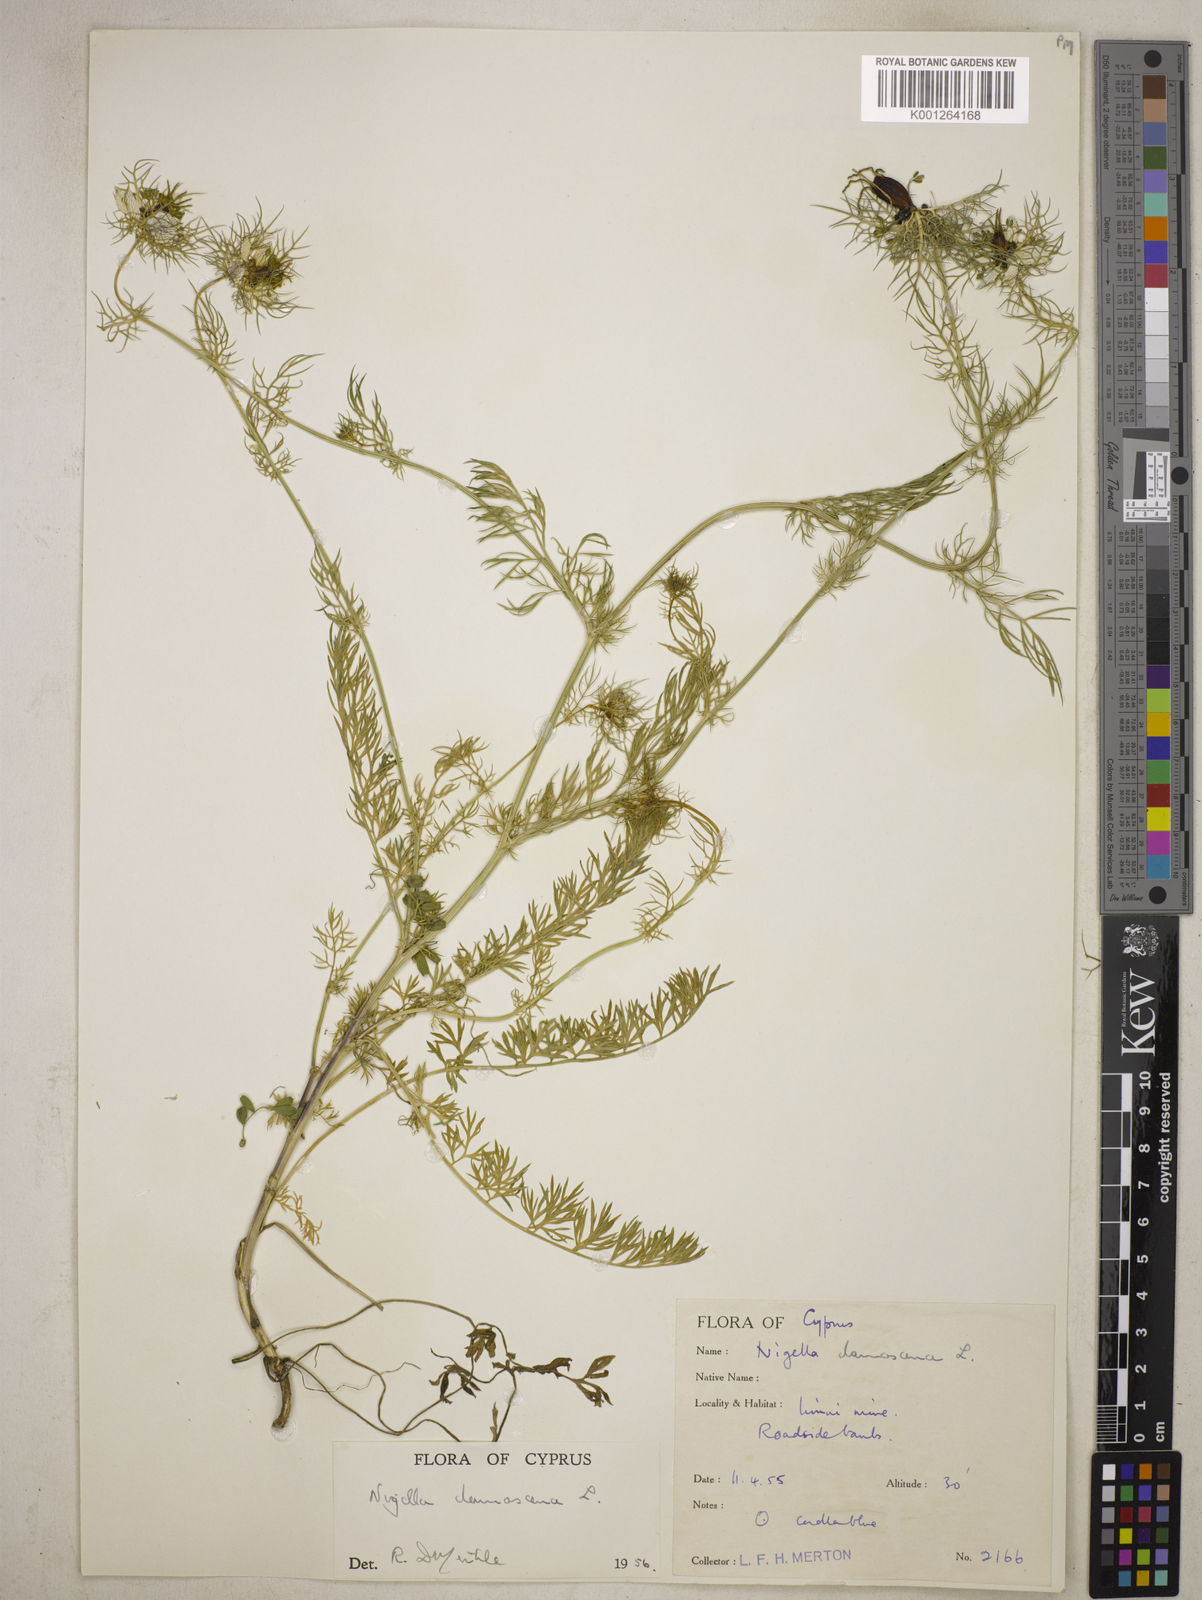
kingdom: Plantae
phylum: Tracheophyta
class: Magnoliopsida
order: Ranunculales
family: Ranunculaceae
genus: Nigella
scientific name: Nigella damascena
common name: Love-in-a-mist
